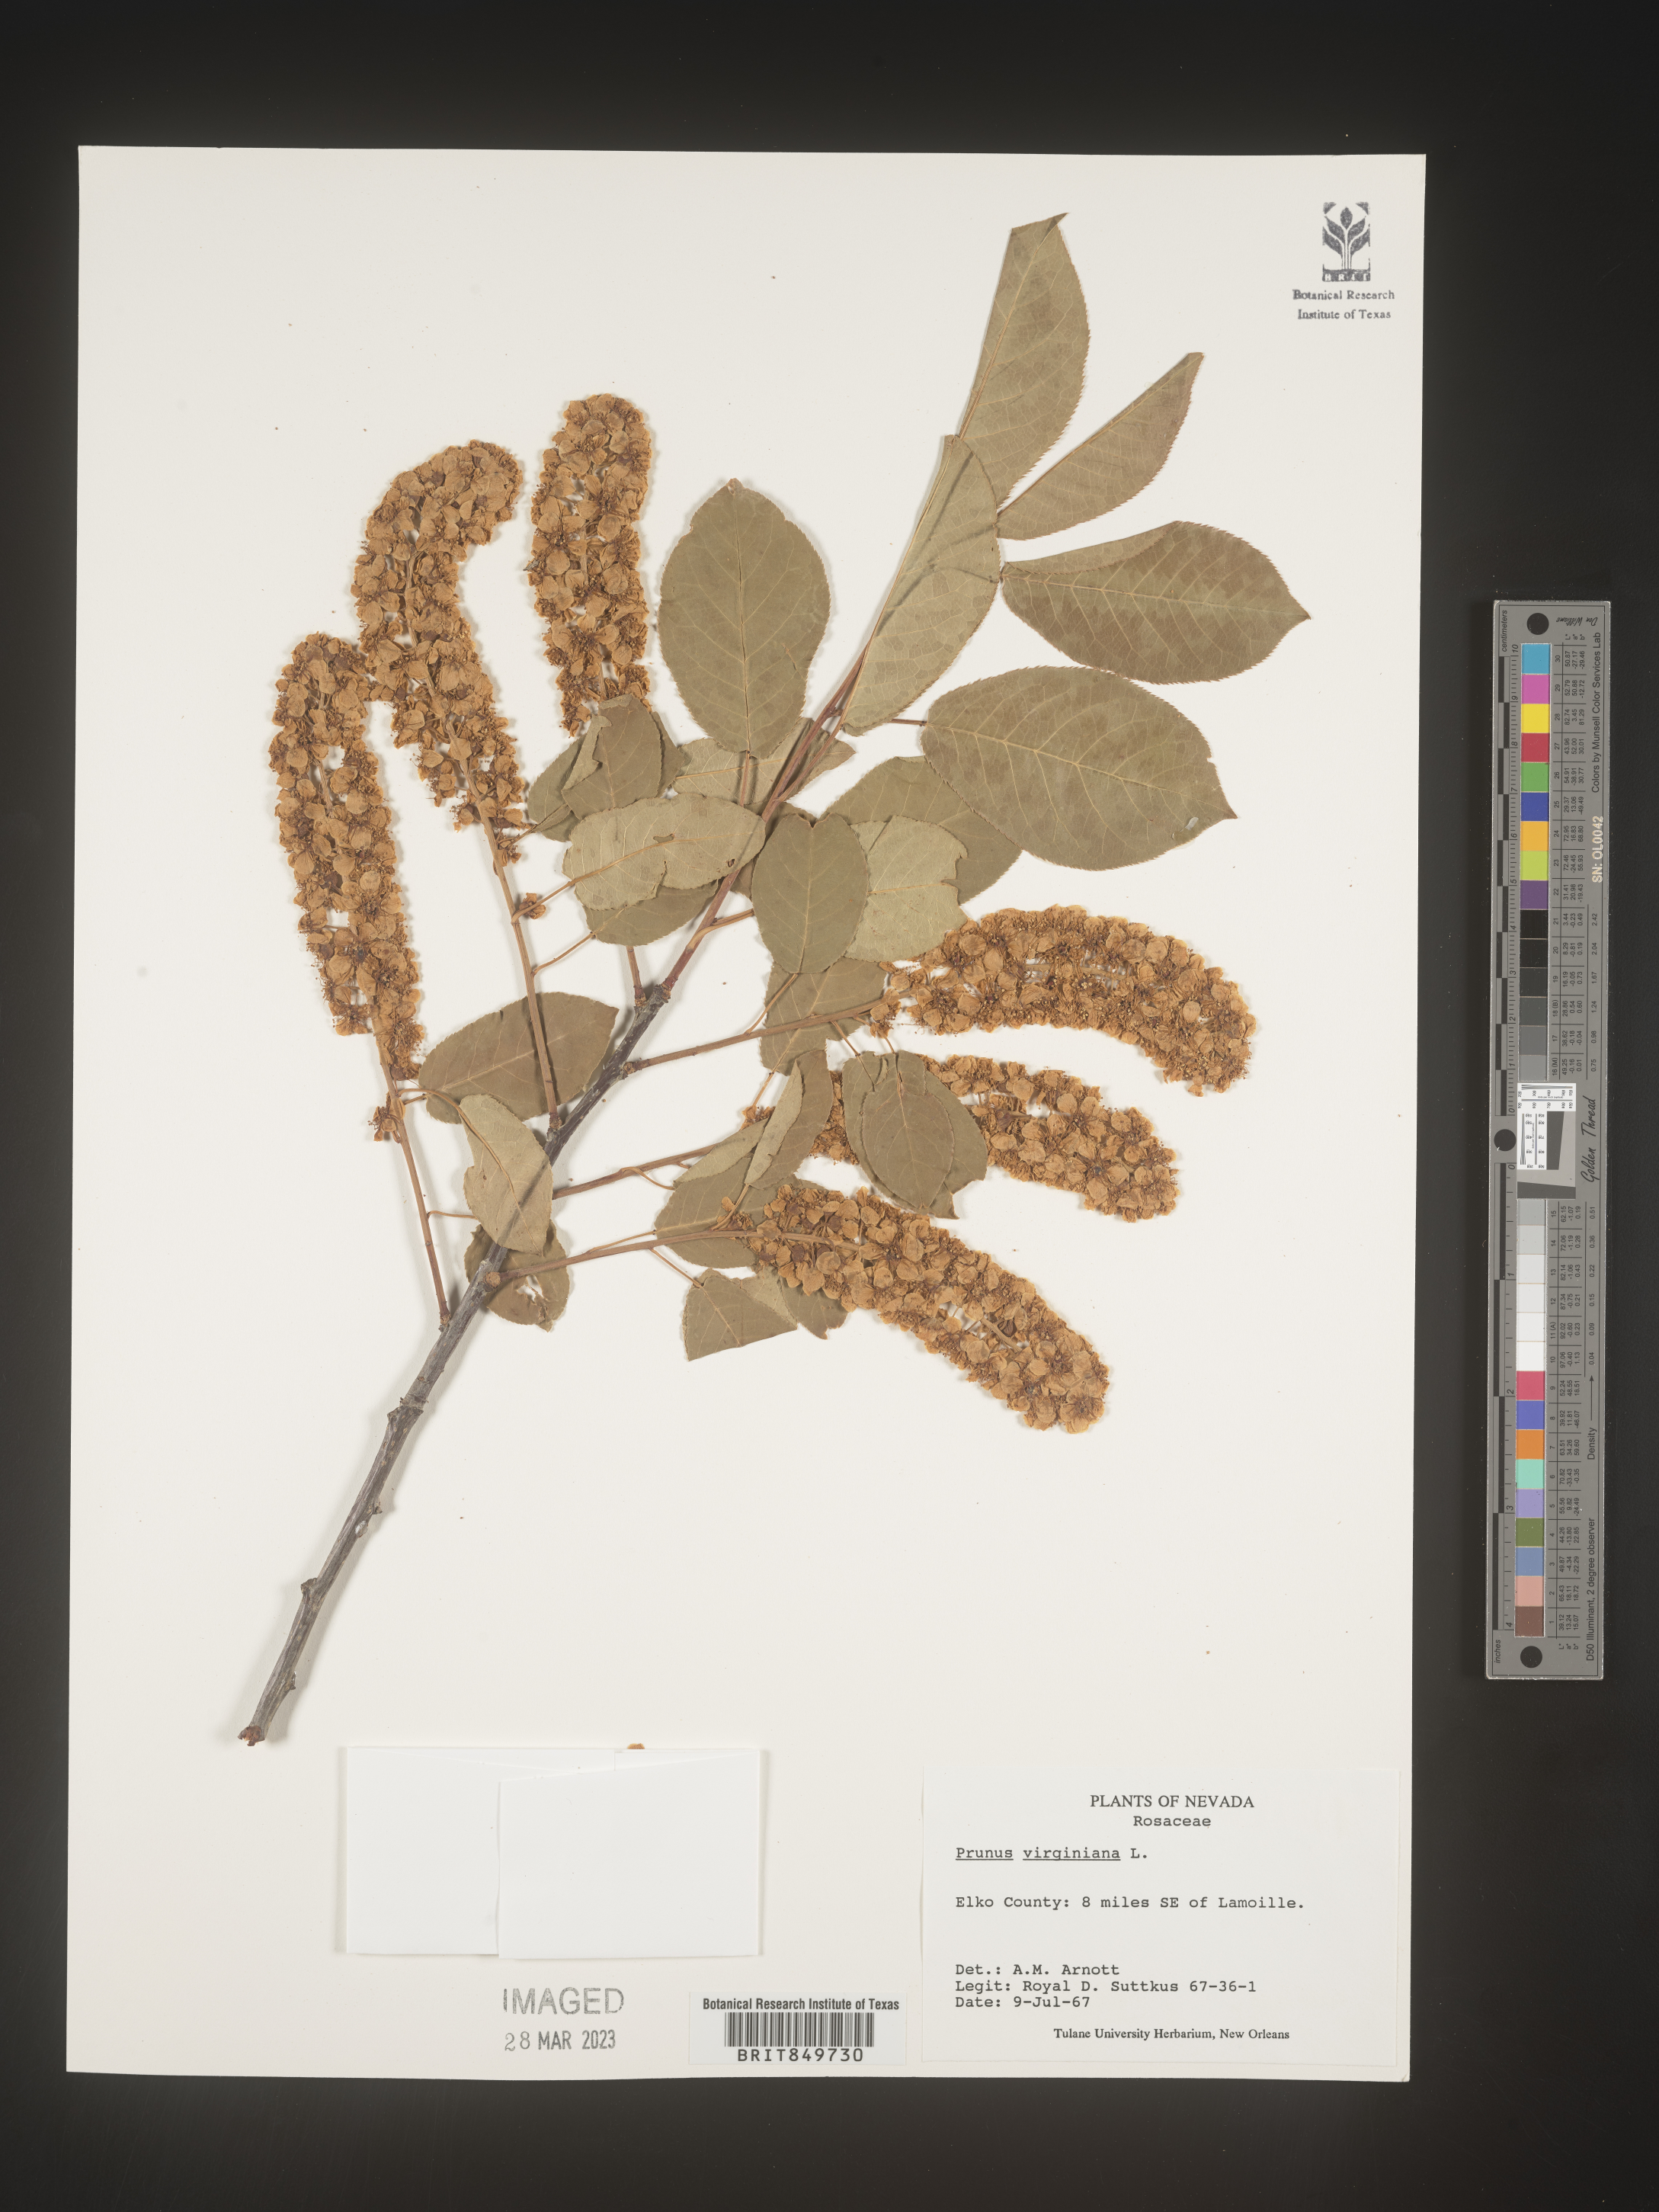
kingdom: Plantae
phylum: Tracheophyta
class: Magnoliopsida
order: Rosales
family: Rosaceae
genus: Prunus
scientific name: Prunus virginiana
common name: Chokecherry
